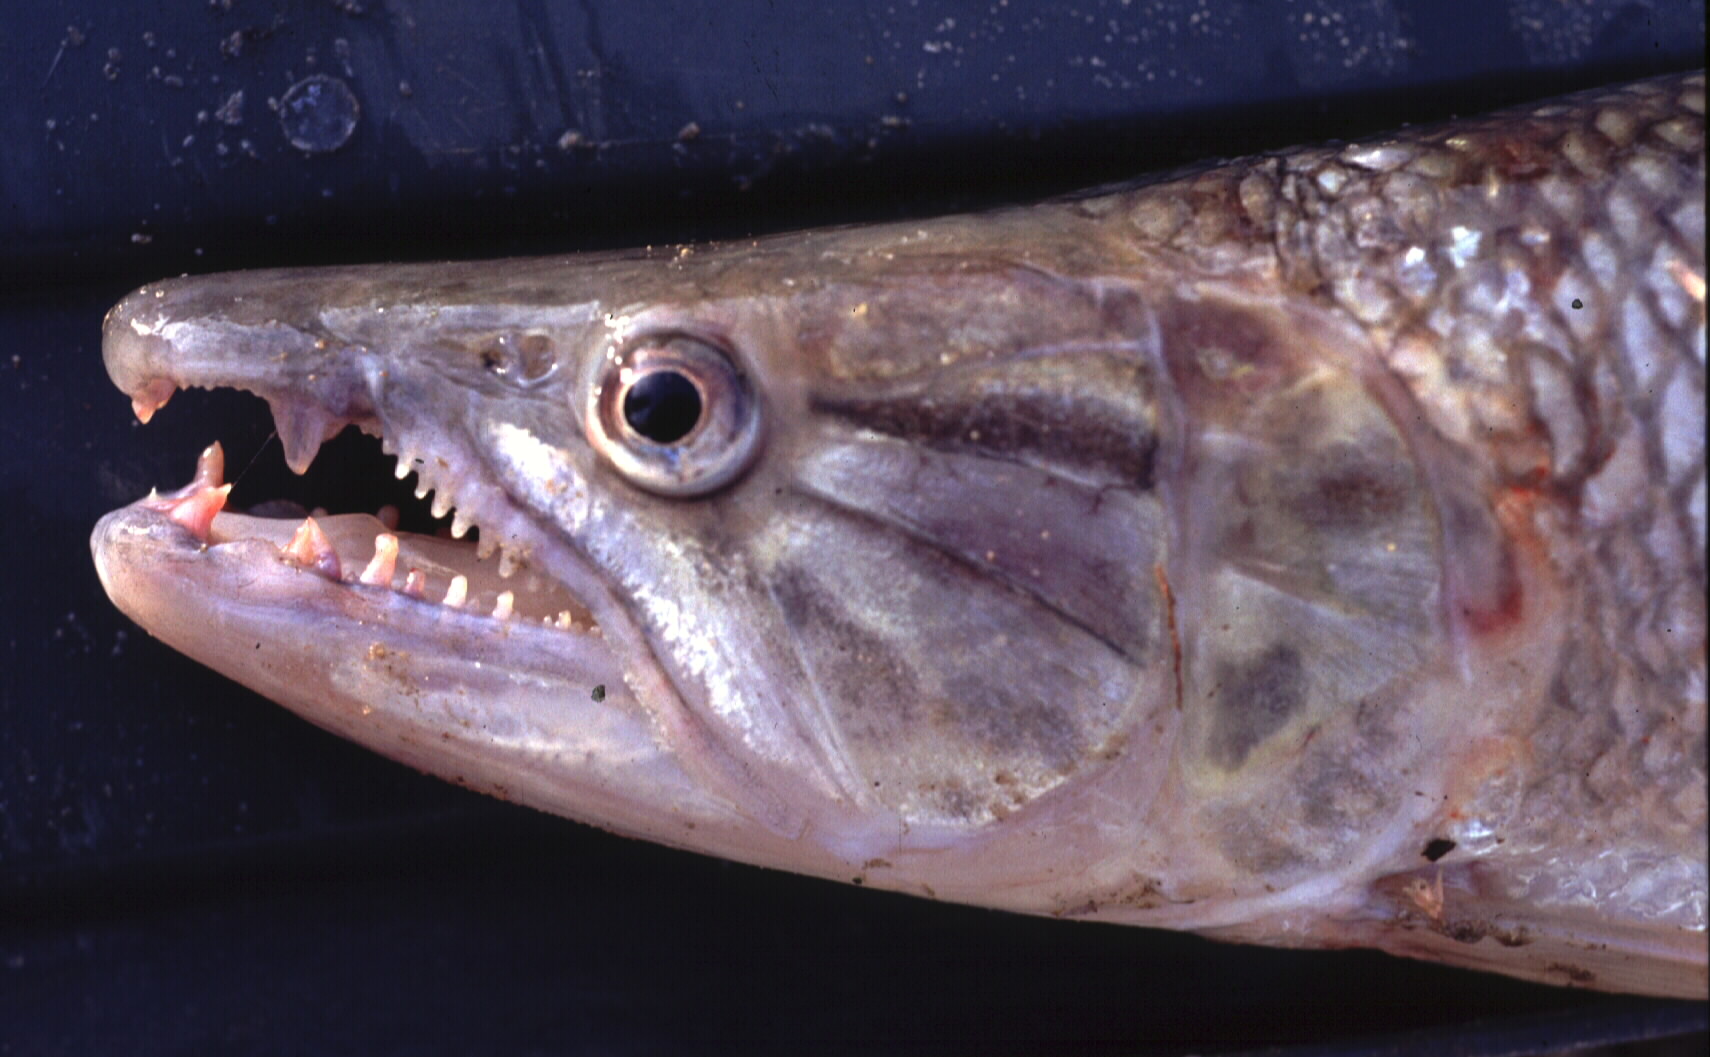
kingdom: Animalia
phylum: Chordata
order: Characiformes
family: Hepsetidae
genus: Hepsetus
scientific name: Hepsetus odoe
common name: African pike
